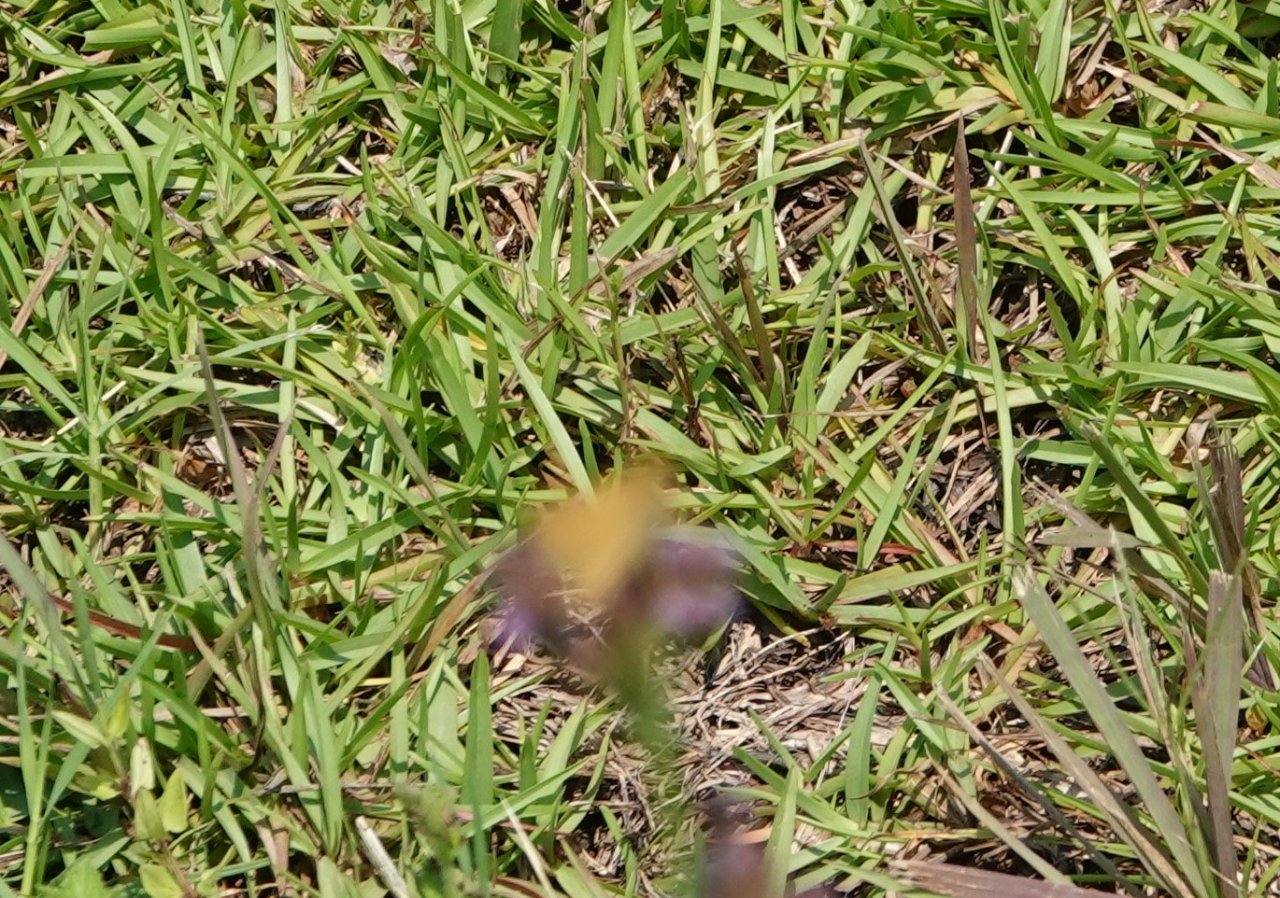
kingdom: Animalia
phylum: Arthropoda
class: Insecta
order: Lepidoptera
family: Hesperiidae
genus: Atalopedes
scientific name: Atalopedes campestris
